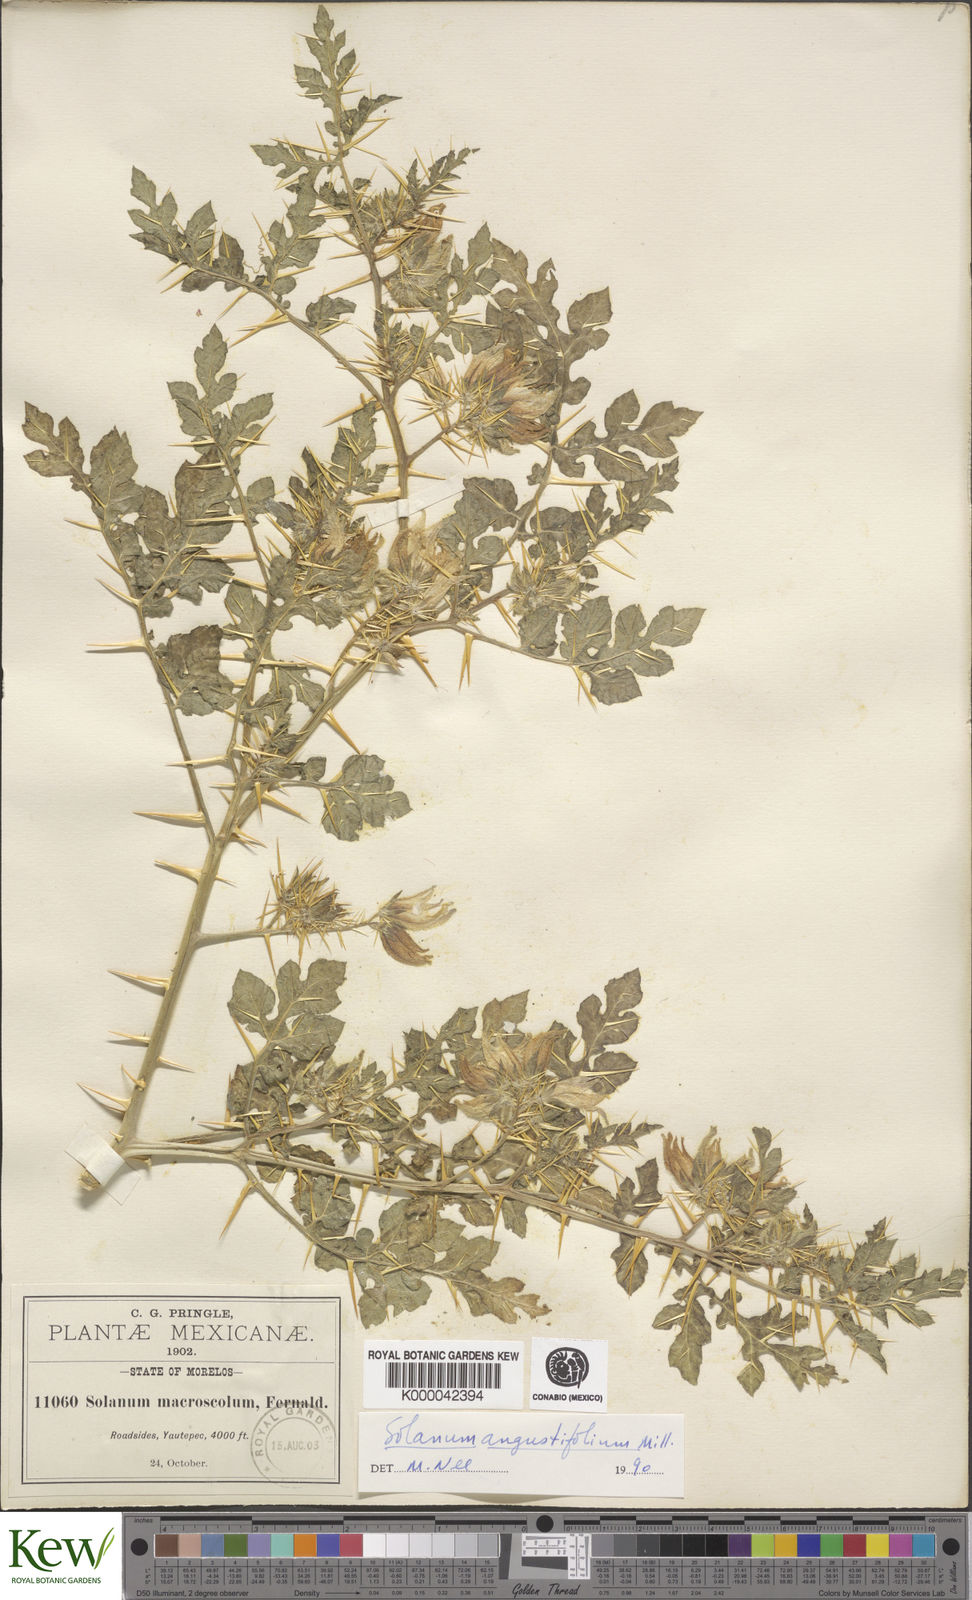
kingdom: Plantae
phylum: Tracheophyta
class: Magnoliopsida
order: Solanales
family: Solanaceae
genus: Solanum
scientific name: Solanum angustifolium
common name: Buffalobur nightshade
